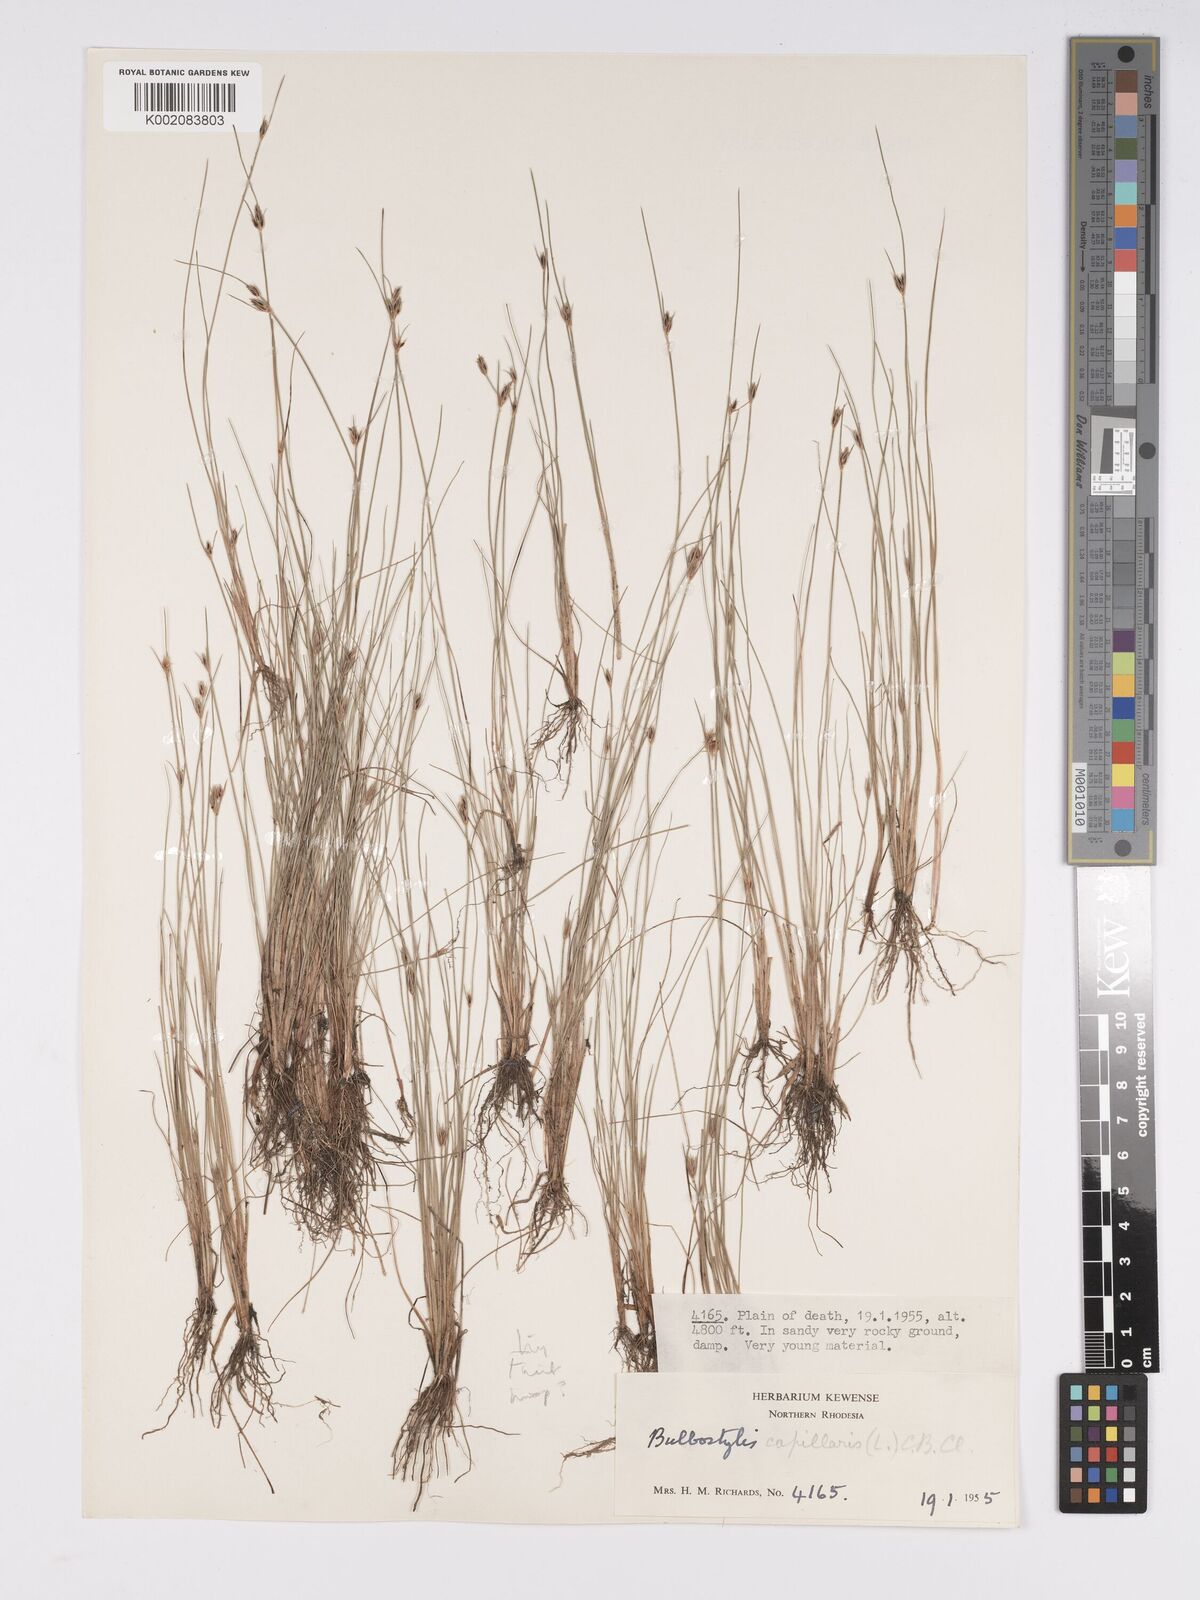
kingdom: Plantae
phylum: Tracheophyta
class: Liliopsida
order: Poales
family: Cyperaceae
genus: Bulbostylis
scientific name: Bulbostylis hispidula
